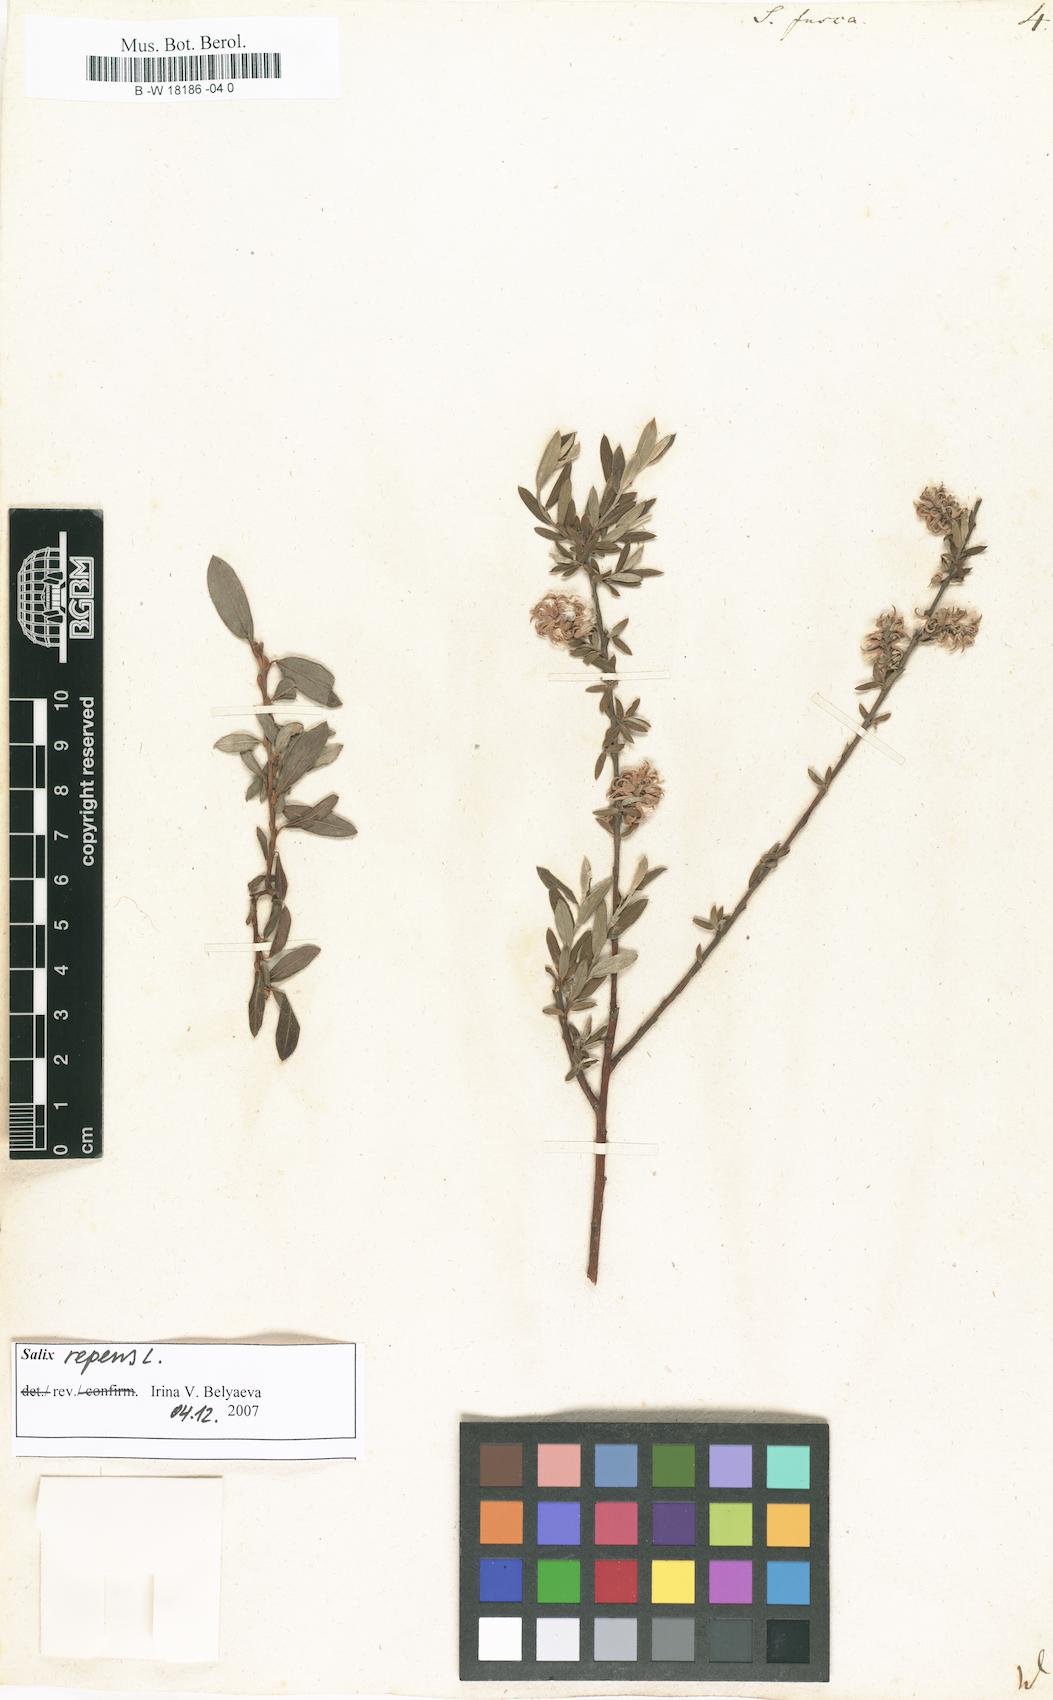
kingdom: Plantae
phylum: Tracheophyta
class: Magnoliopsida
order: Malpighiales
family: Salicaceae
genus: Salix
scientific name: Salix repens
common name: Creeping willow
